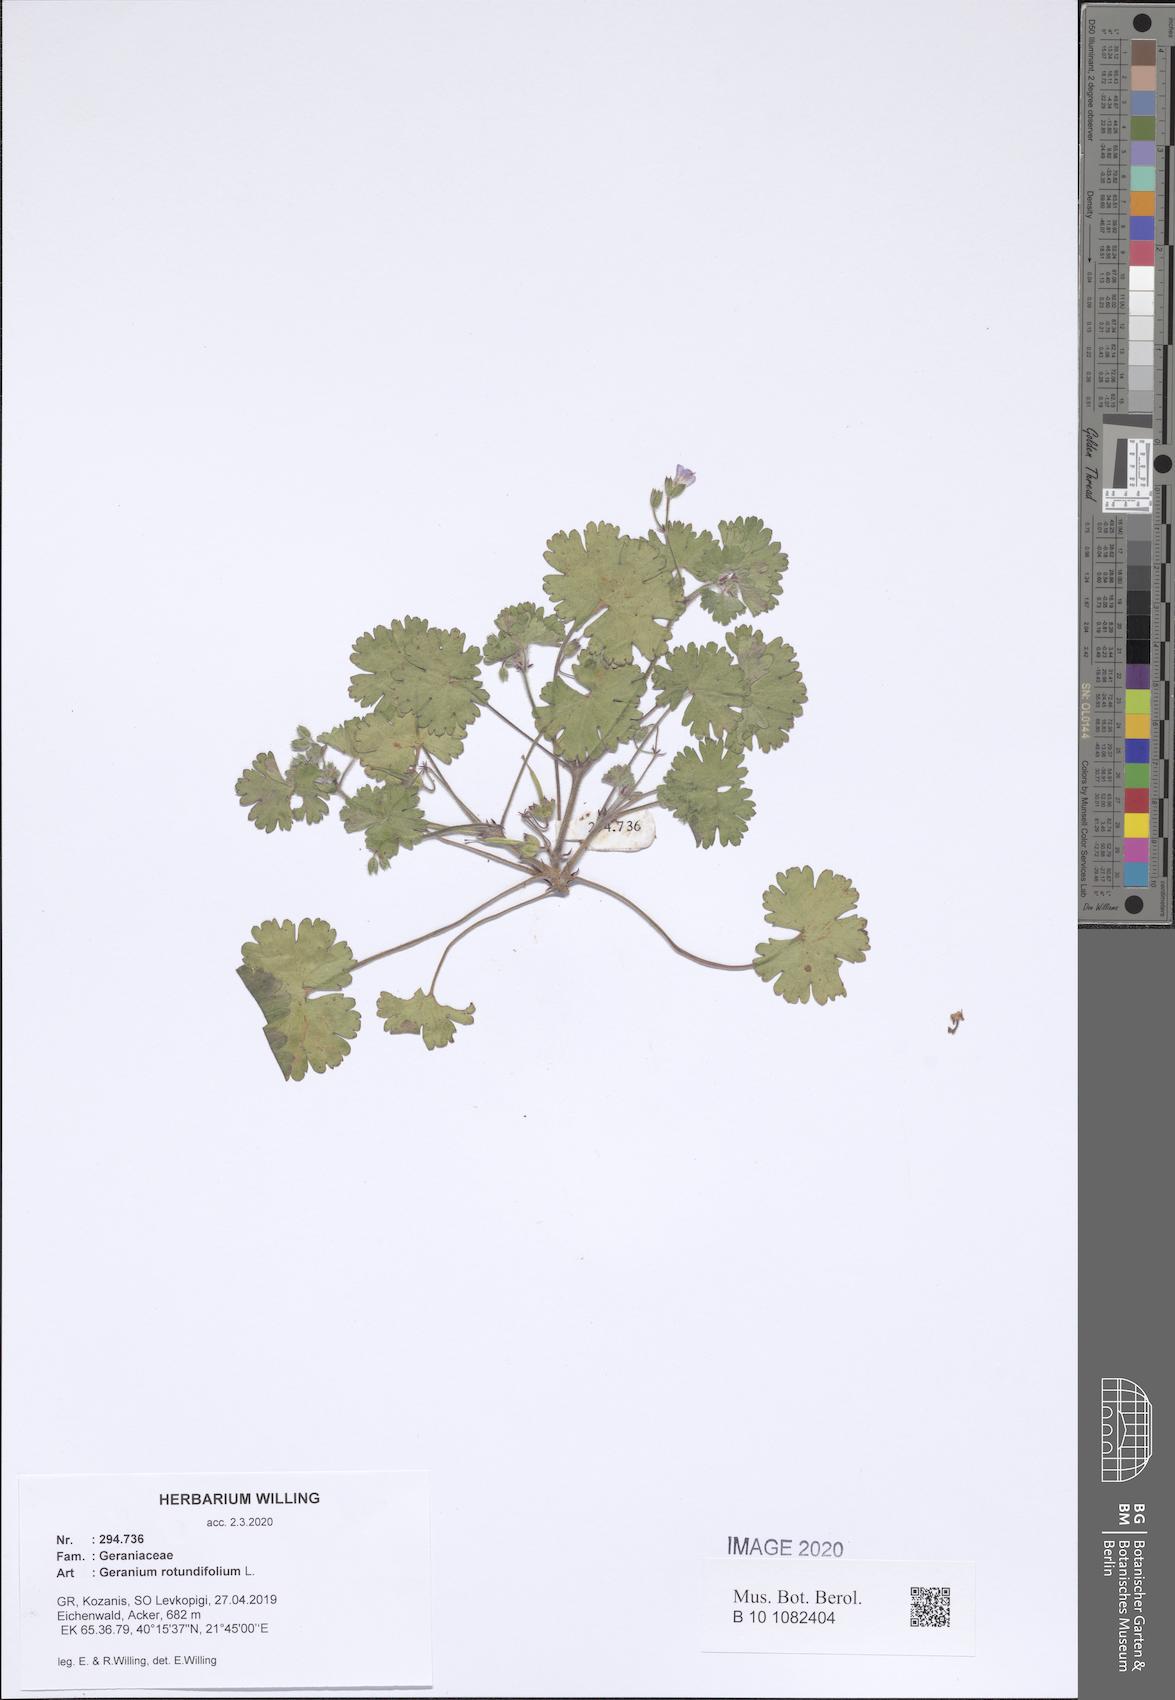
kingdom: Plantae
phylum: Tracheophyta
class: Magnoliopsida
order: Geraniales
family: Geraniaceae
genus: Geranium
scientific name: Geranium rotundifolium
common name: Round-leaved crane's-bill
